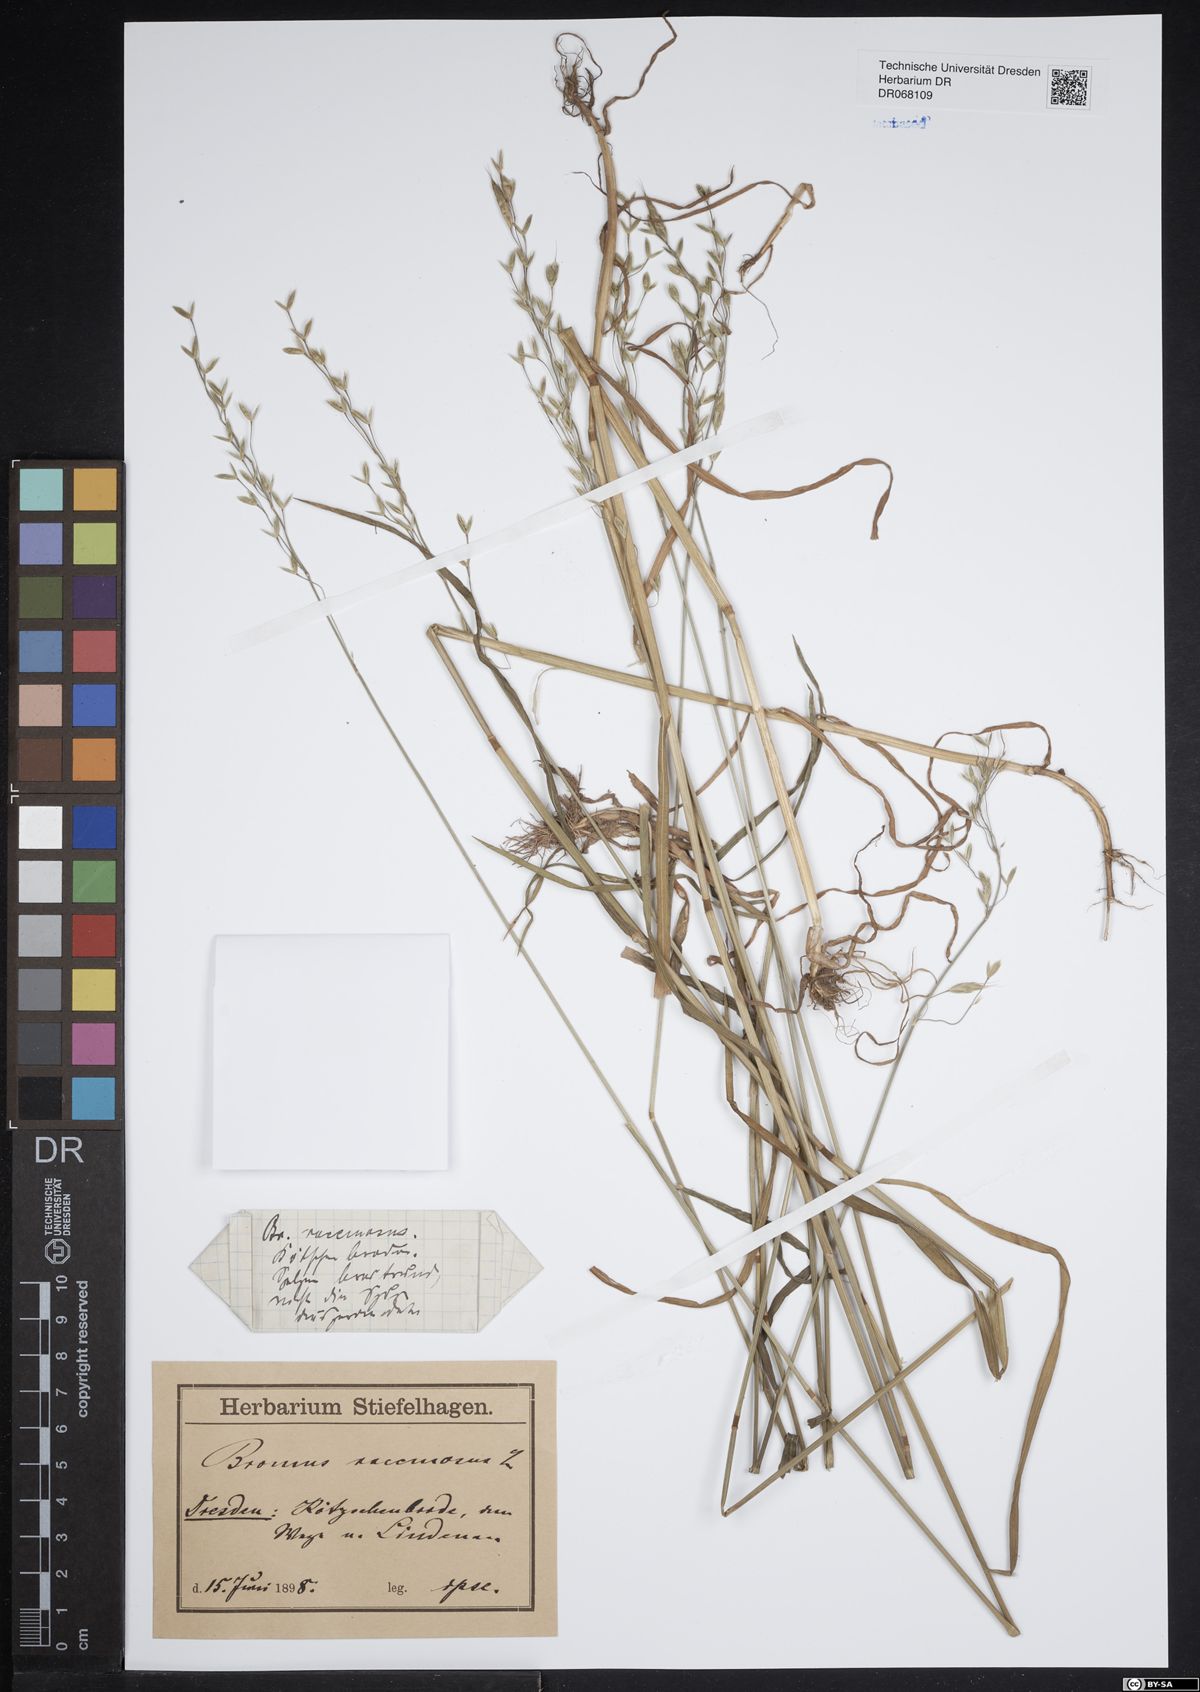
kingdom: Plantae
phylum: Tracheophyta
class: Liliopsida
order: Poales
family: Poaceae
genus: Bromus
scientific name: Bromus racemosus
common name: Bald brome
